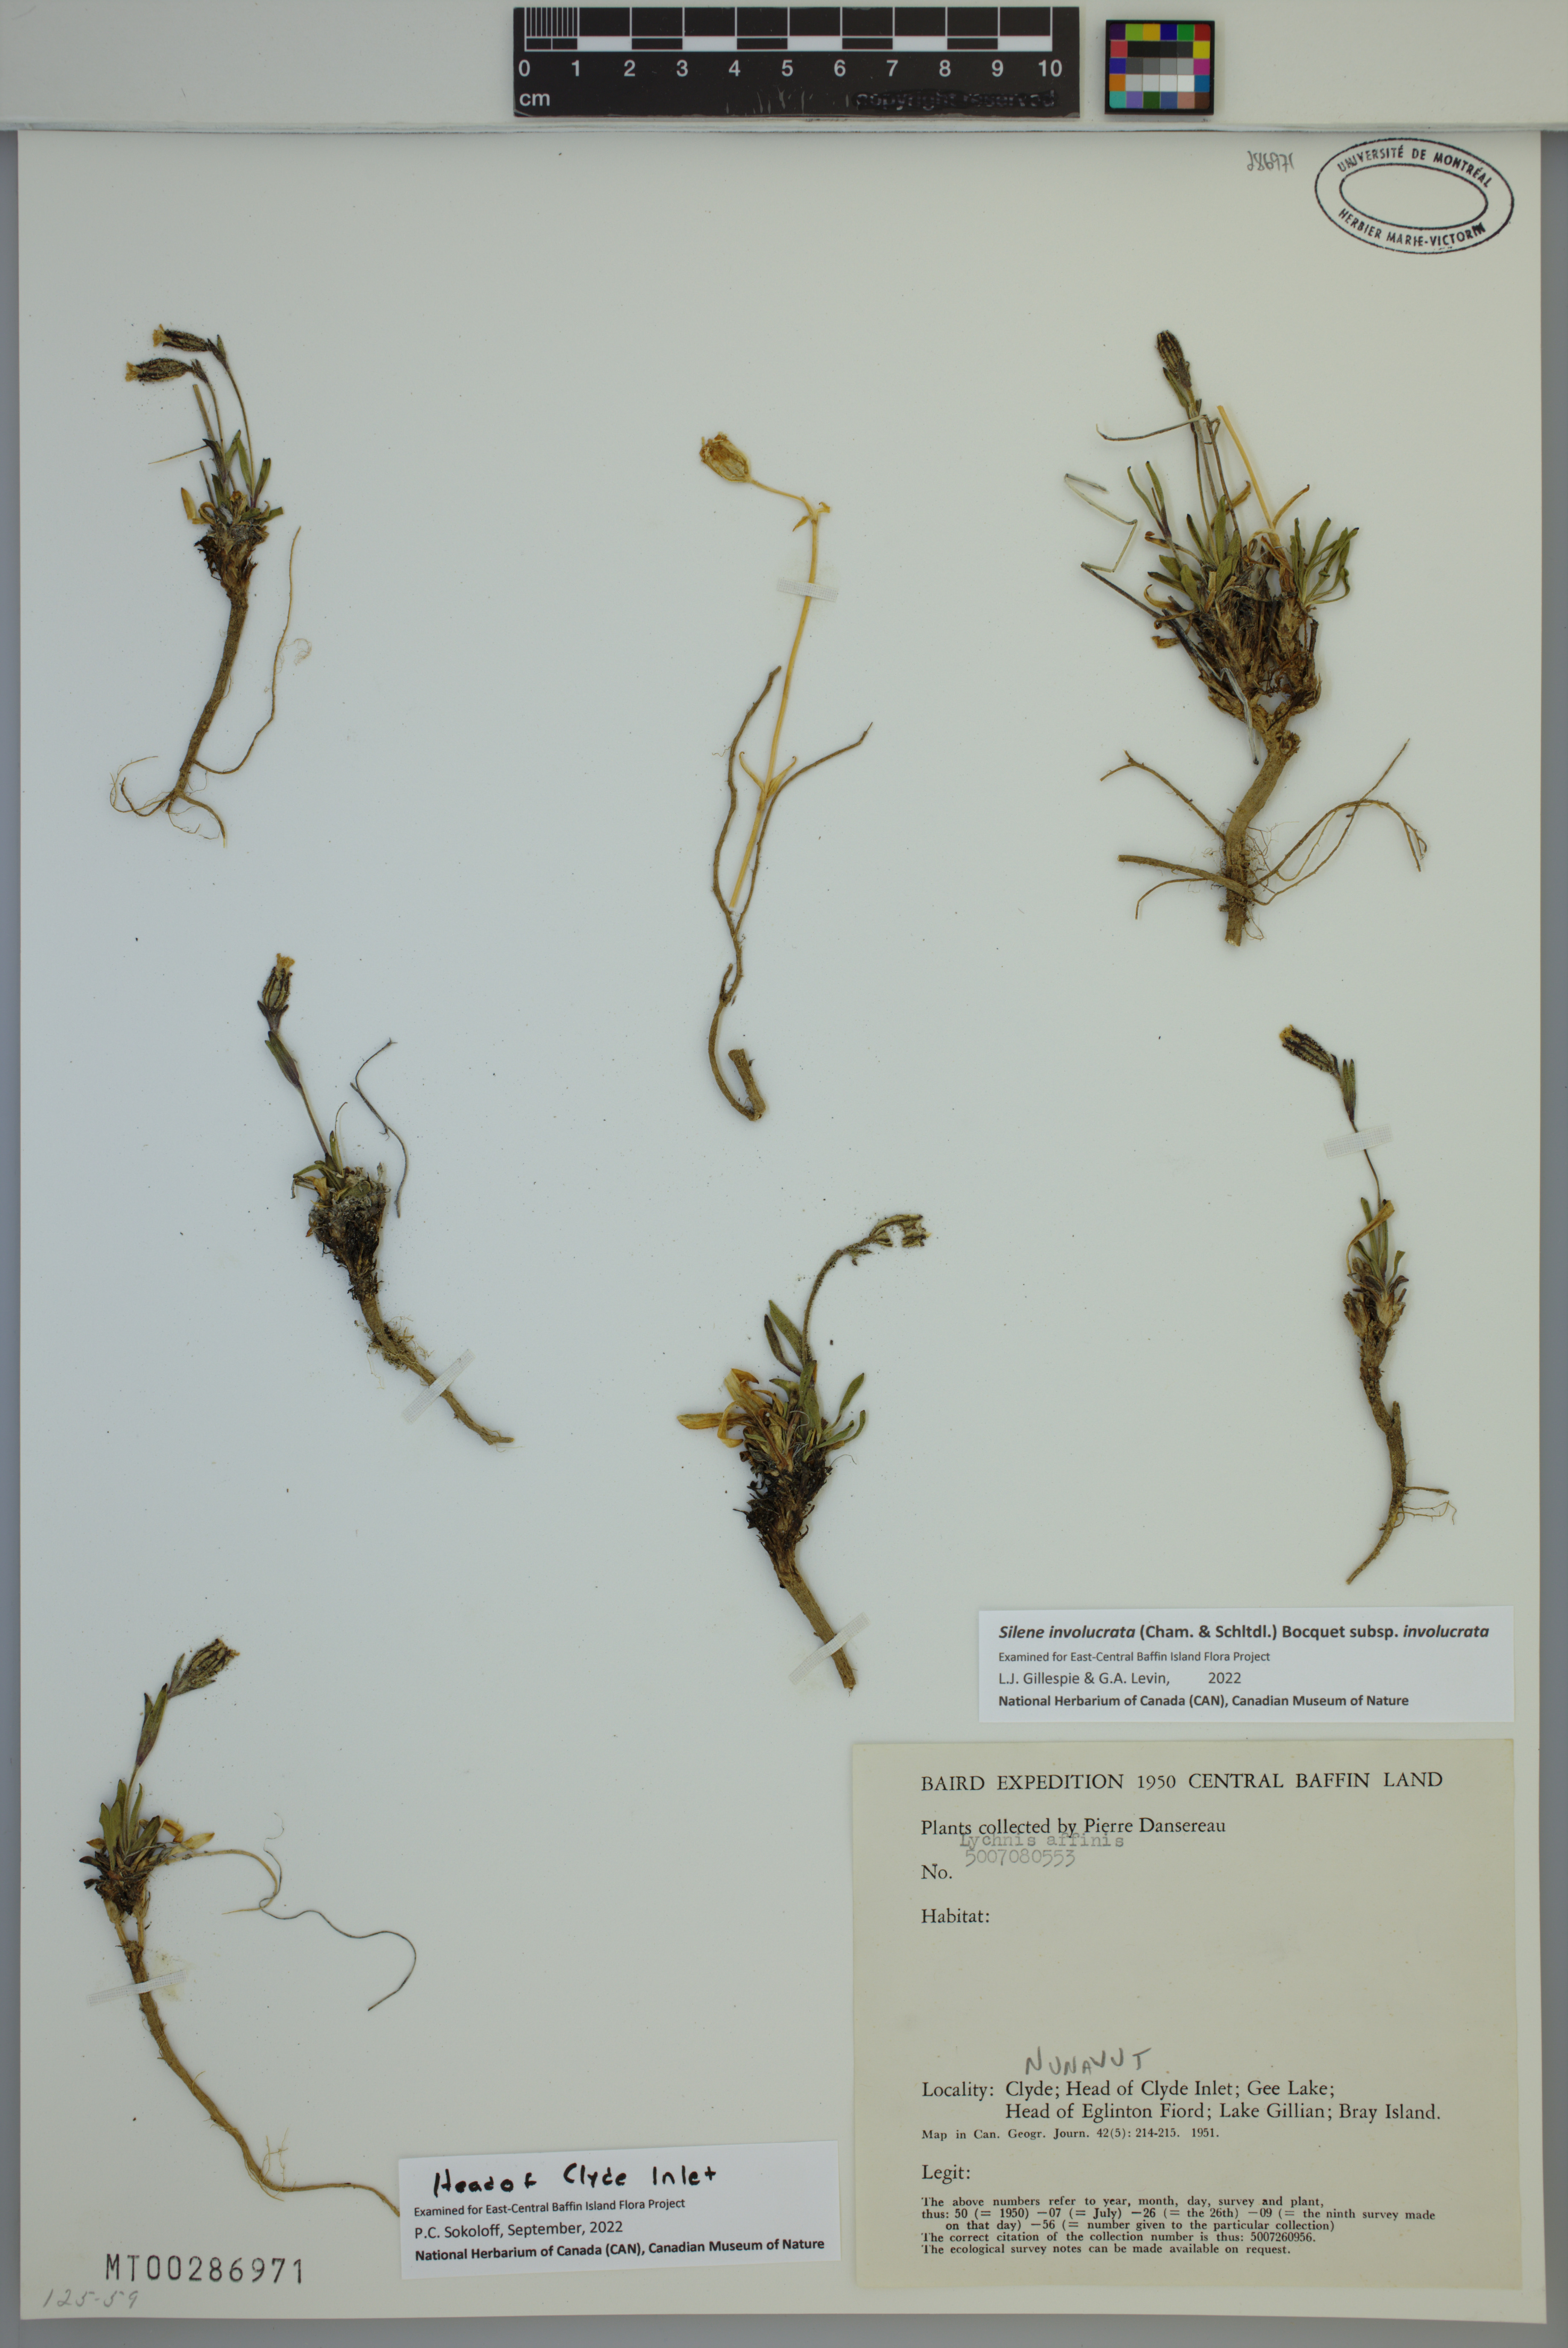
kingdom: Plantae
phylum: Tracheophyta
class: Magnoliopsida
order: Caryophyllales
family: Caryophyllaceae
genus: Silene
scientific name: Silene involucrata
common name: Greater arctic campion
